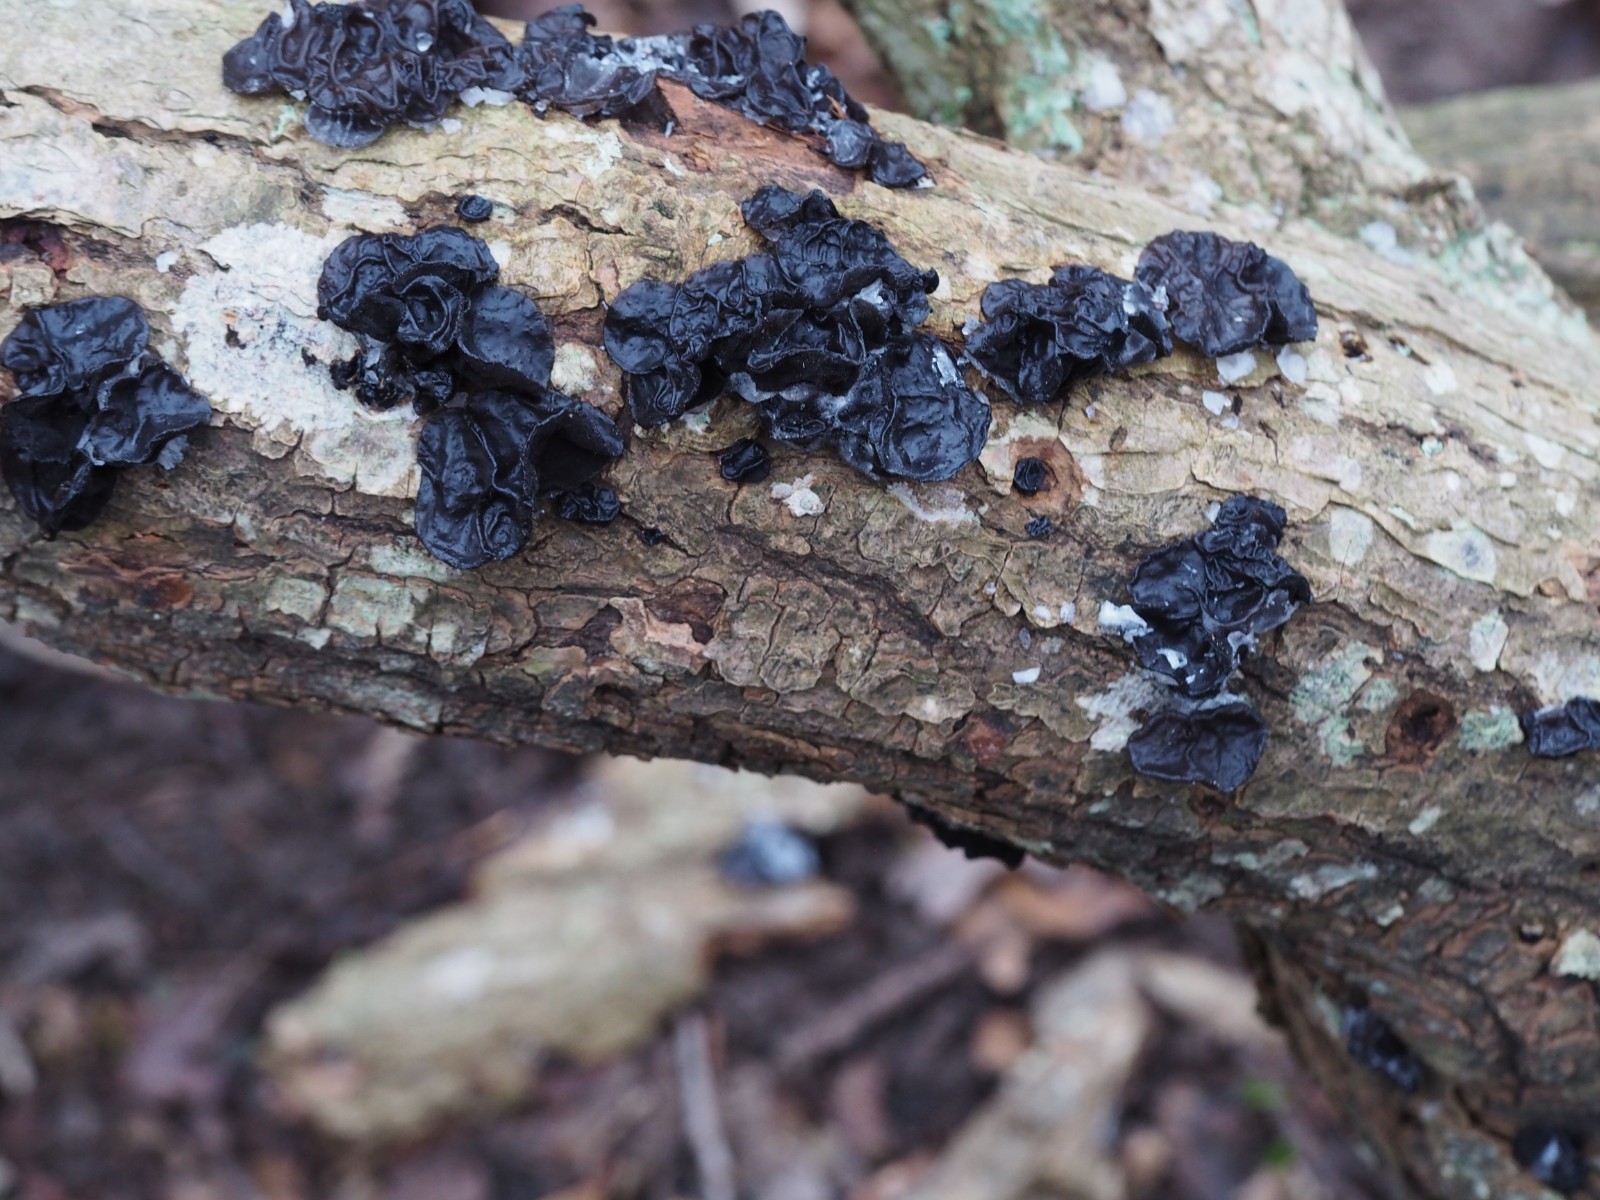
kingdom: Fungi
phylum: Basidiomycota
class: Agaricomycetes
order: Auriculariales
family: Auriculariaceae
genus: Exidia
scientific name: Exidia glandulosa
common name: ege-bævretop
